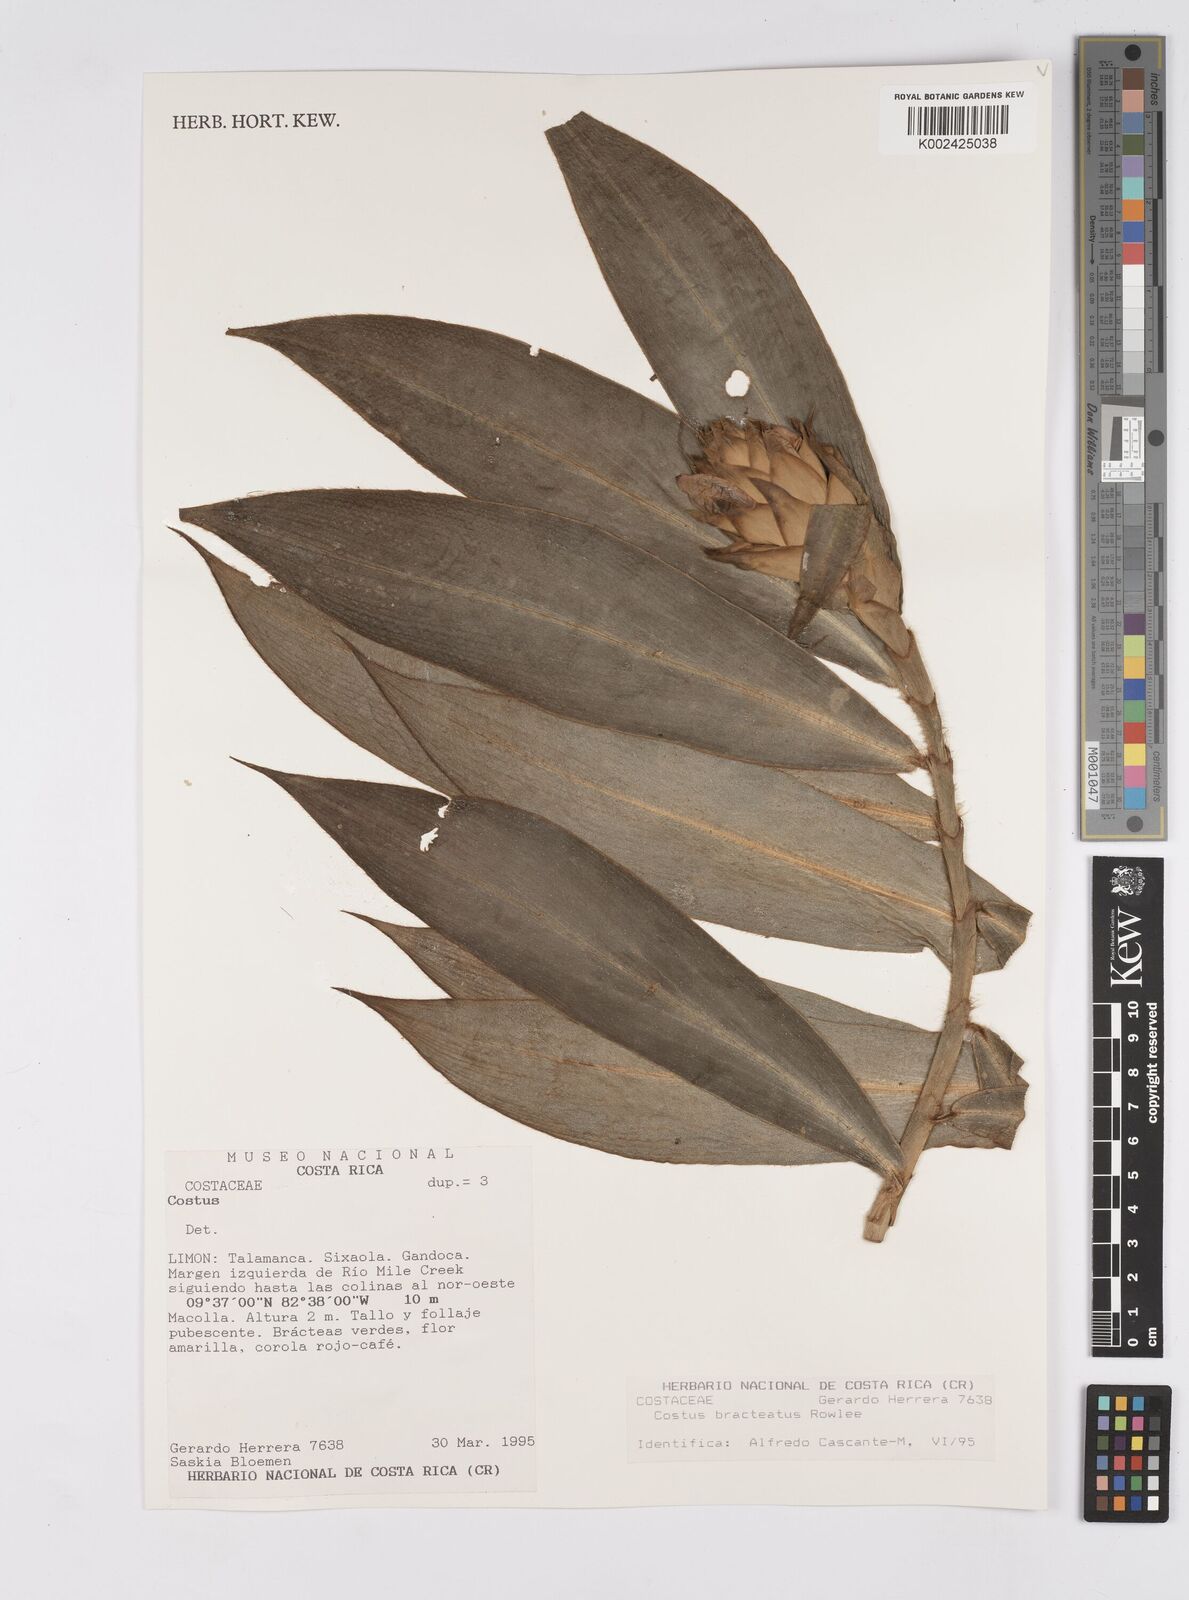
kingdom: Plantae
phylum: Tracheophyta
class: Liliopsida
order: Zingiberales
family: Costaceae
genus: Costus
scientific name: Costus bracteatus
